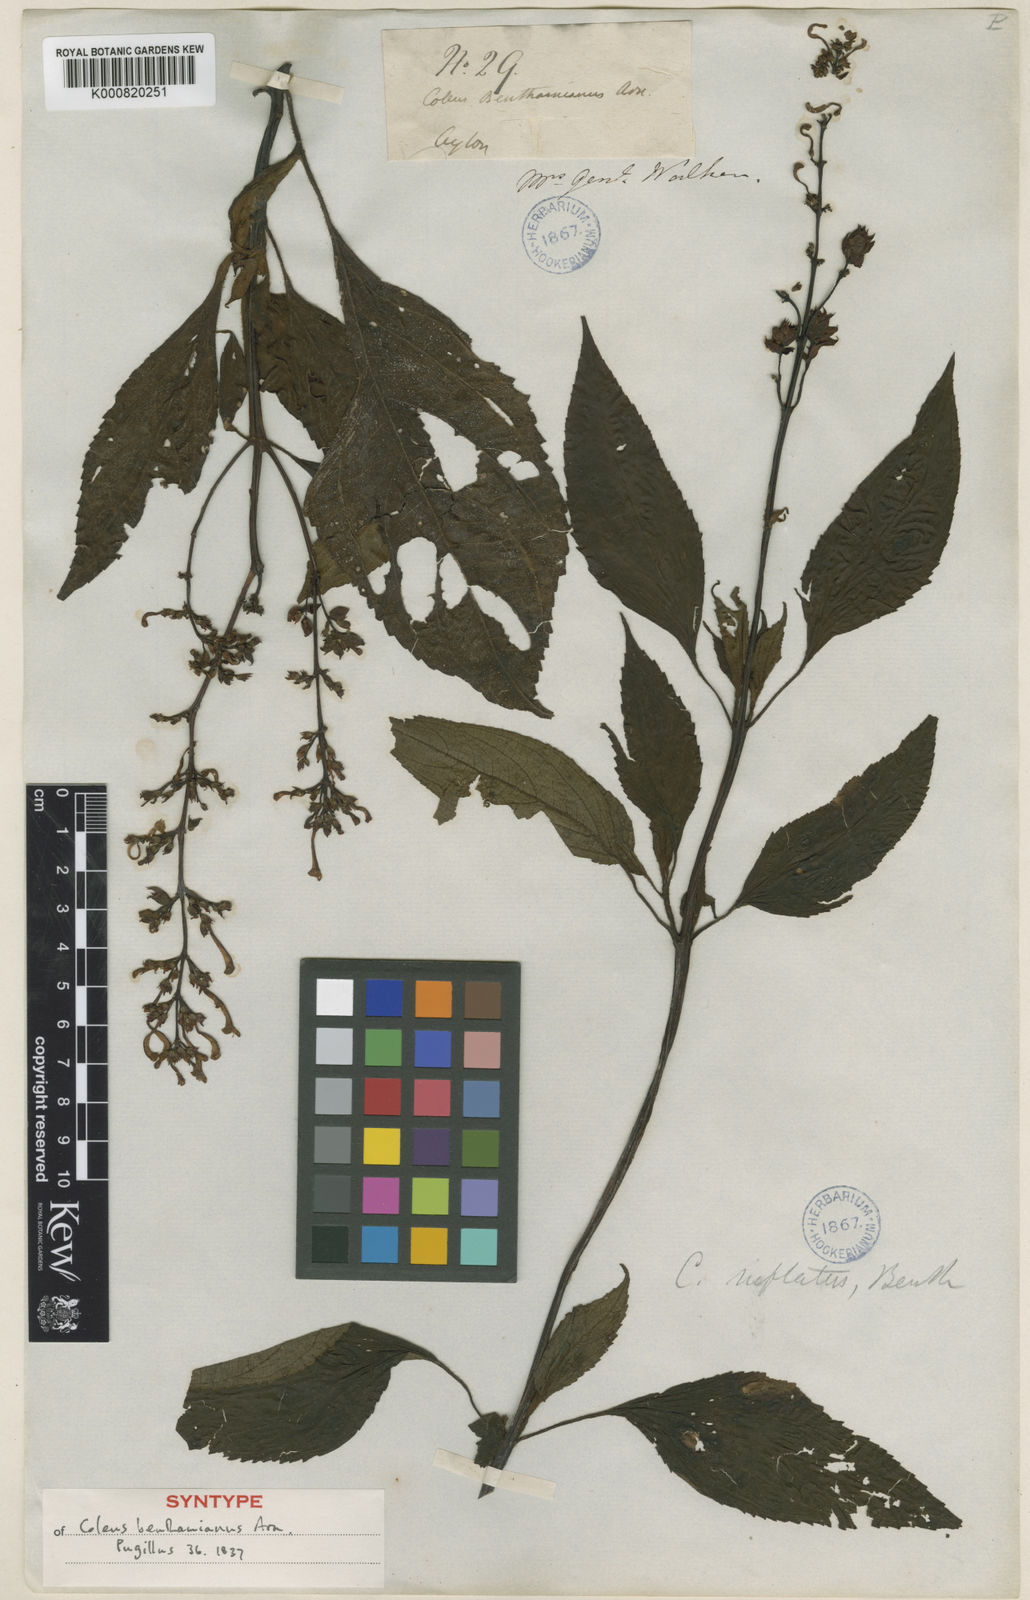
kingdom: Plantae
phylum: Tracheophyta
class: Magnoliopsida
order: Lamiales
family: Lamiaceae
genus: Coleus
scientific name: Coleus inflatus
